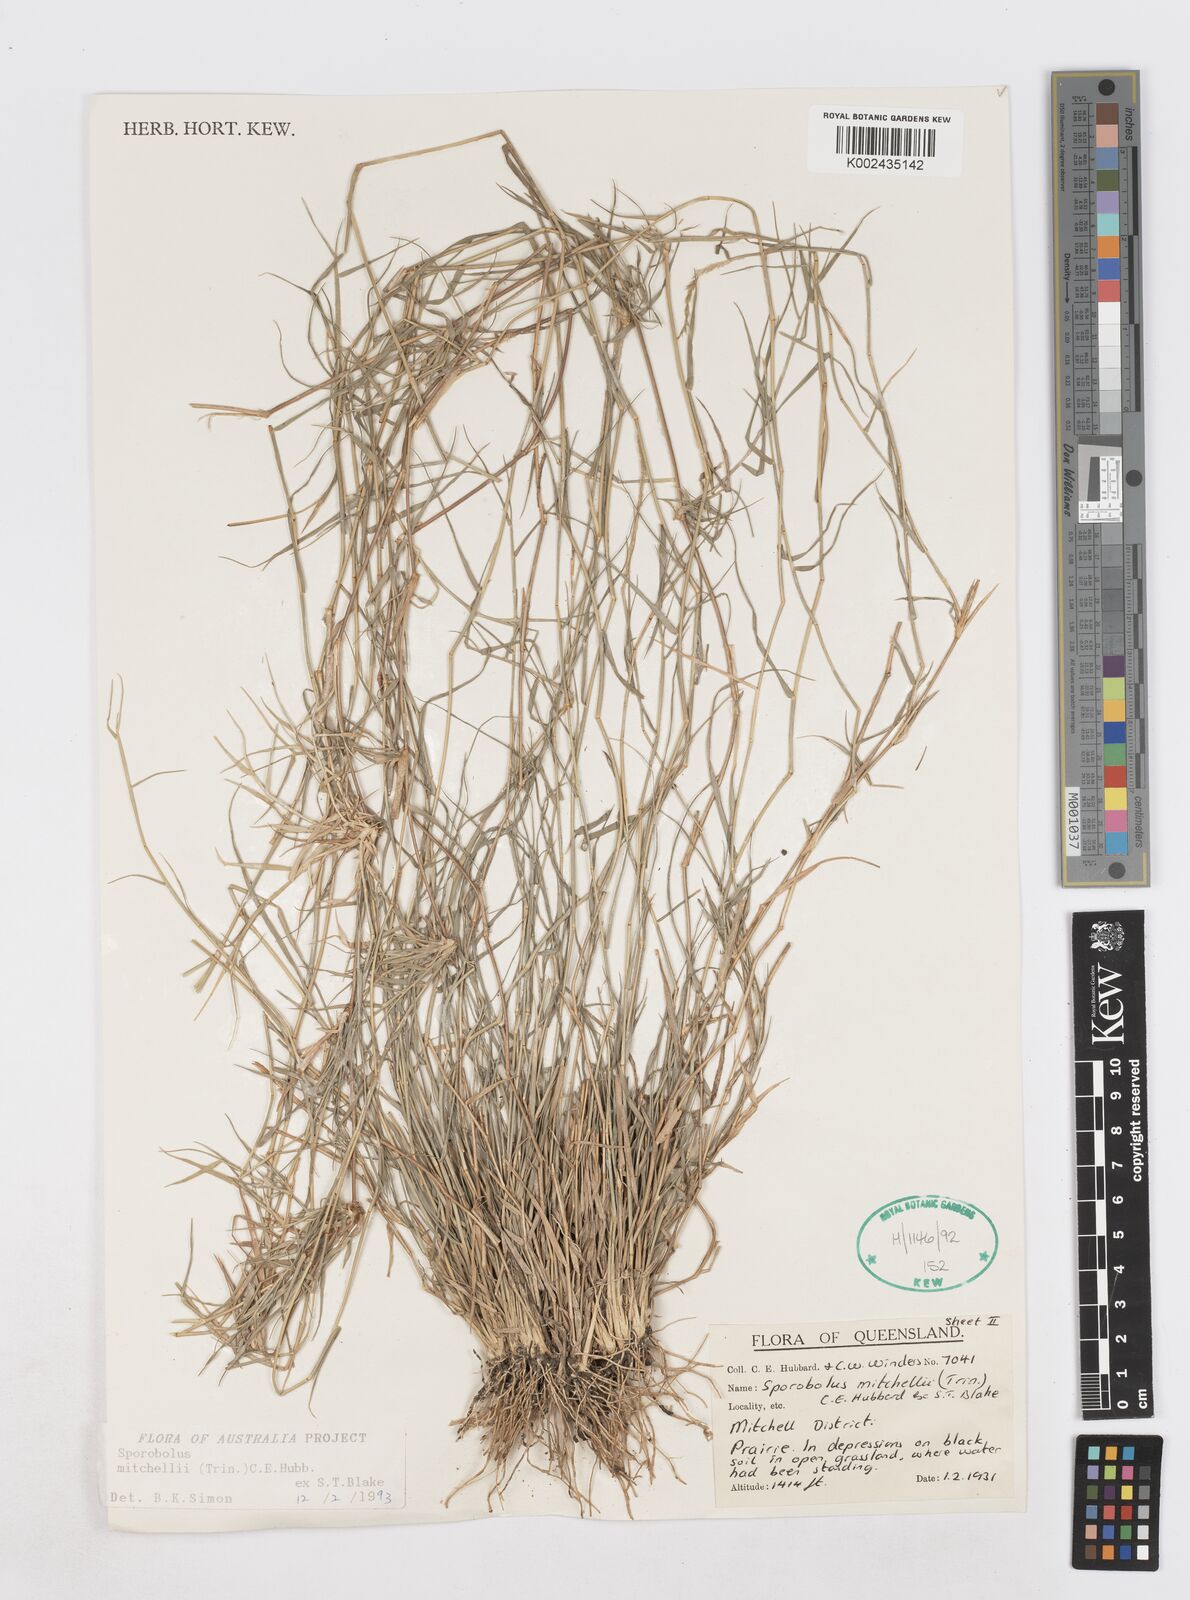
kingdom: Plantae
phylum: Tracheophyta
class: Liliopsida
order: Poales
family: Poaceae
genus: Sporobolus
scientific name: Sporobolus mitchellii
